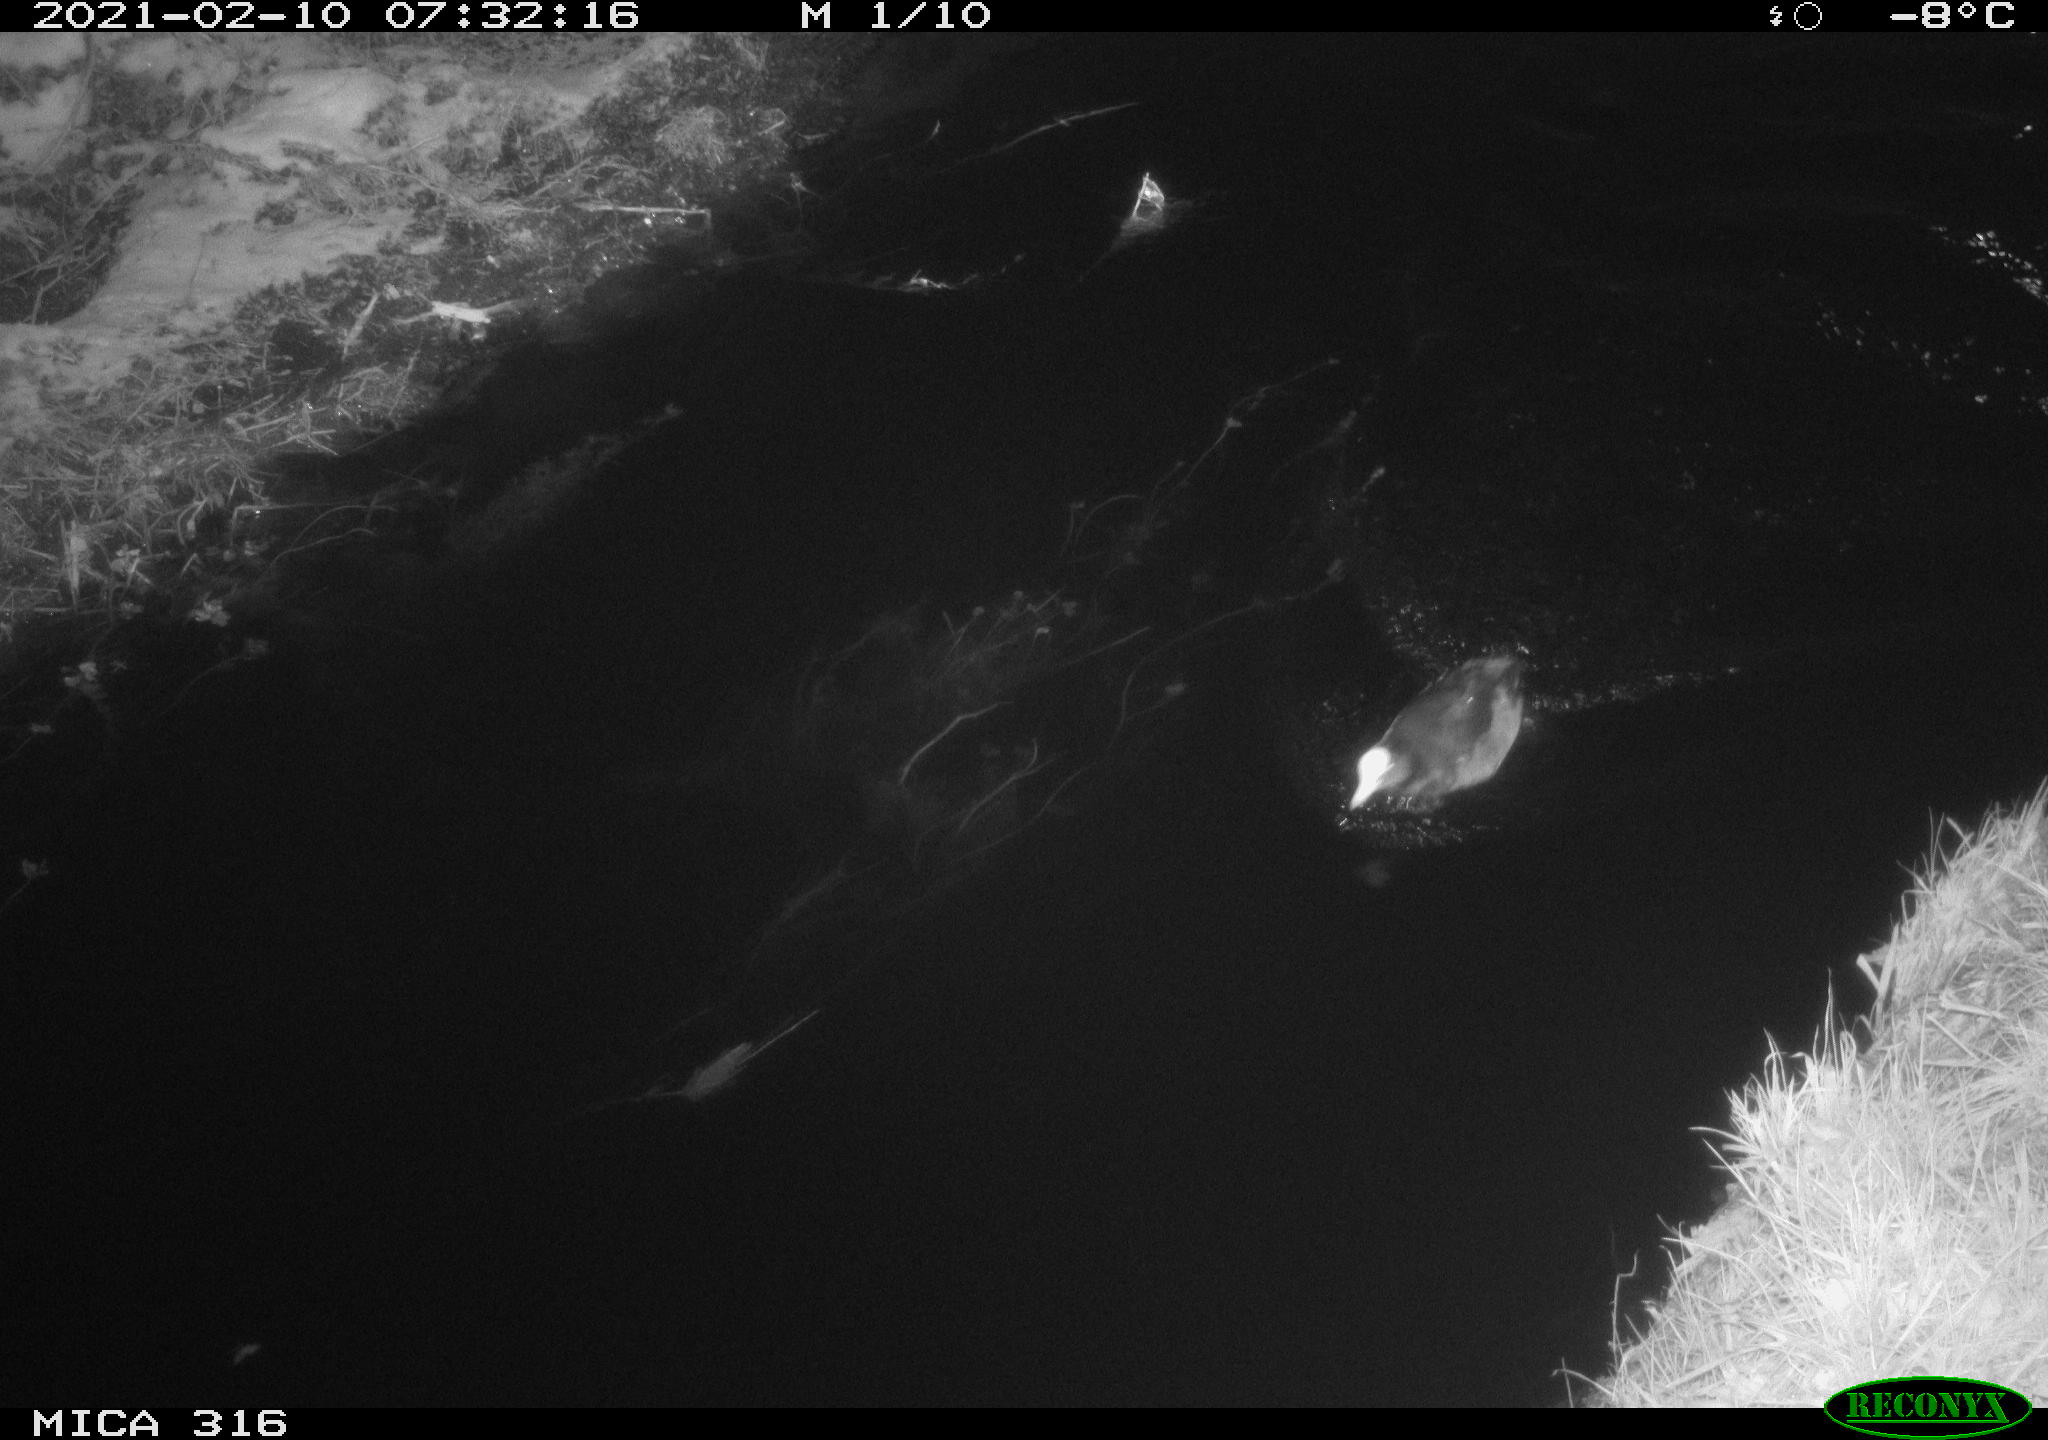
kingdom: Animalia
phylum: Chordata
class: Aves
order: Gruiformes
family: Rallidae
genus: Fulica
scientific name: Fulica atra
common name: Eurasian coot
